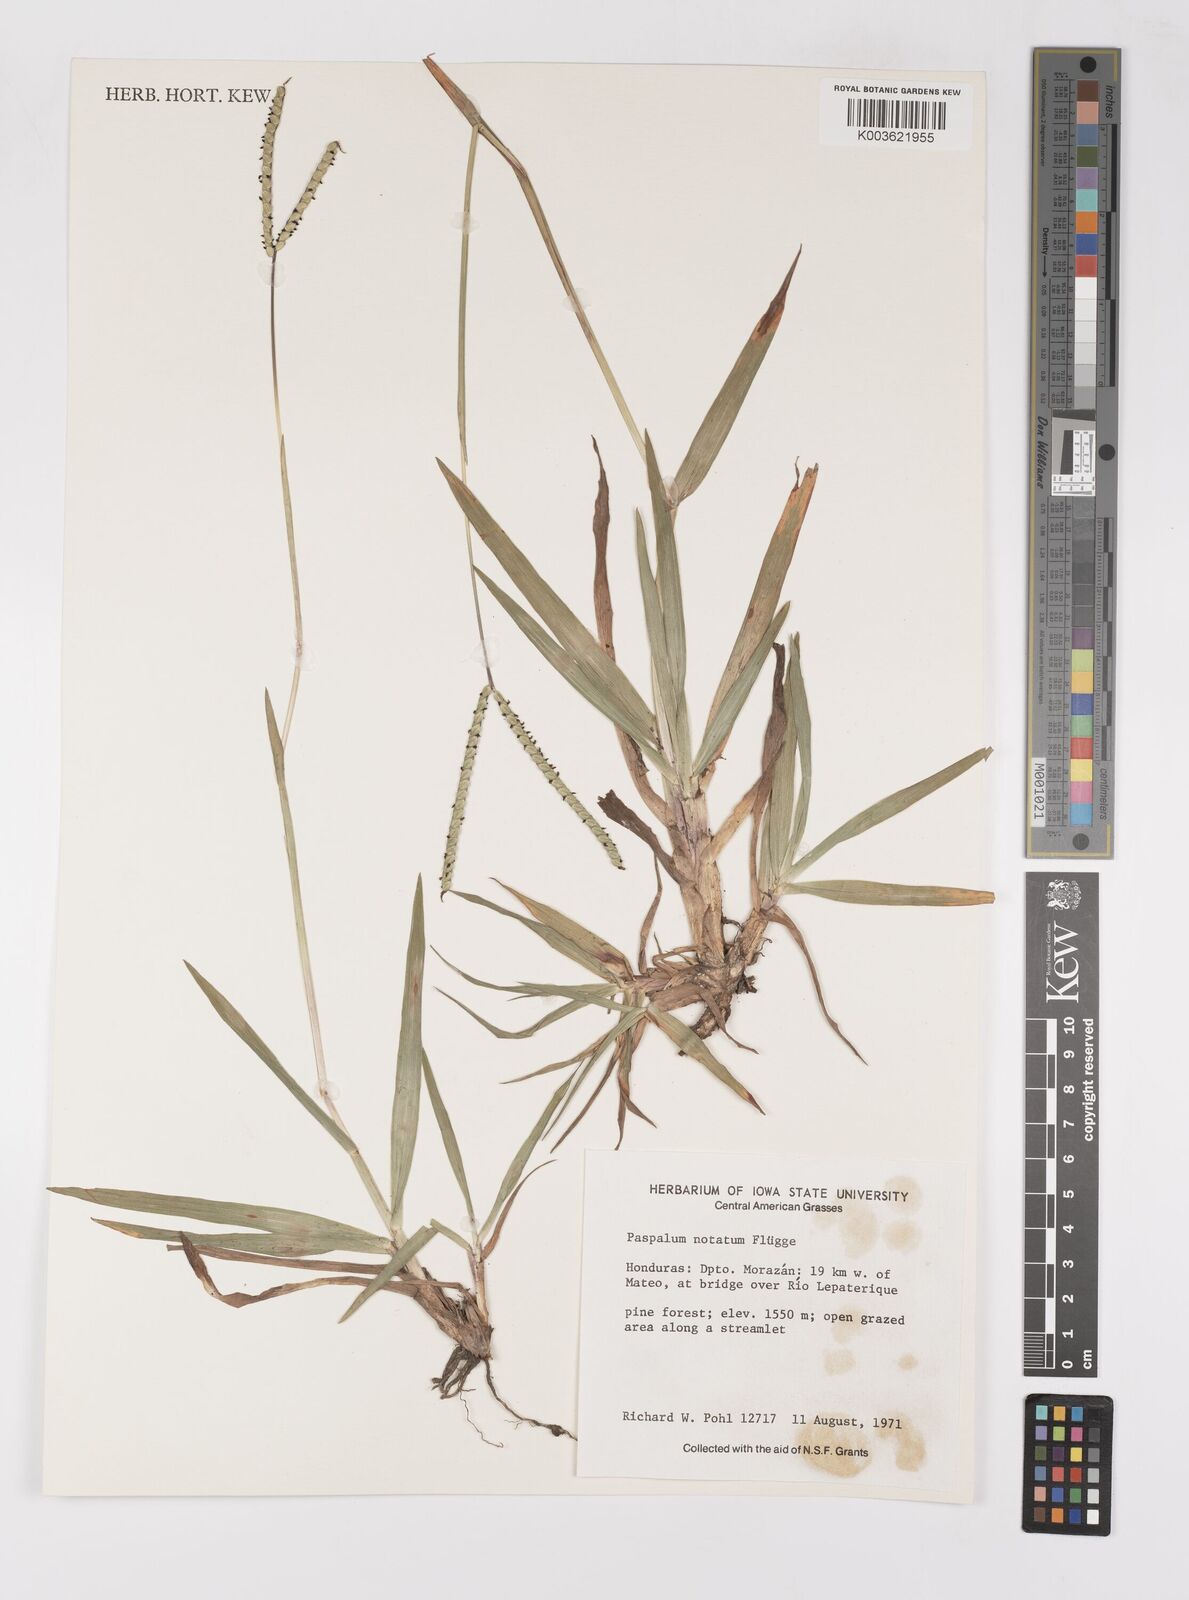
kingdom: Plantae
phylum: Tracheophyta
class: Liliopsida
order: Poales
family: Poaceae
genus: Paspalum
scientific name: Paspalum notatum
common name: Bahiagrass
